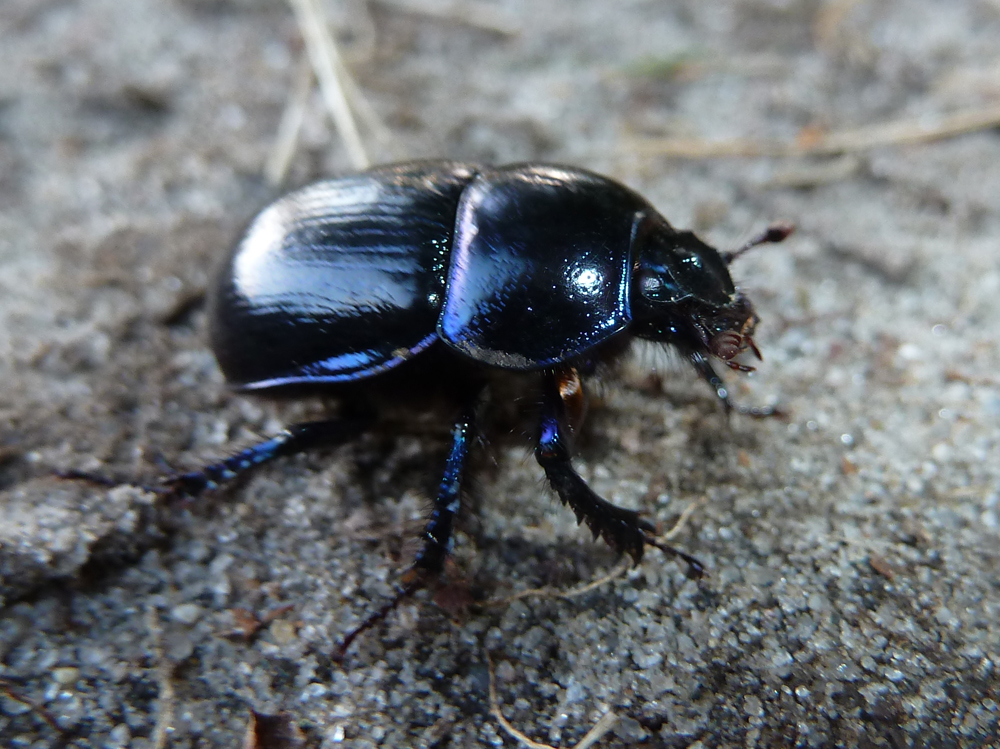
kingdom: Animalia
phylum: Arthropoda
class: Insecta
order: Coleoptera
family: Geotrupidae
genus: Trypocopris
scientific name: Trypocopris vernalis
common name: Spring dumbledor
